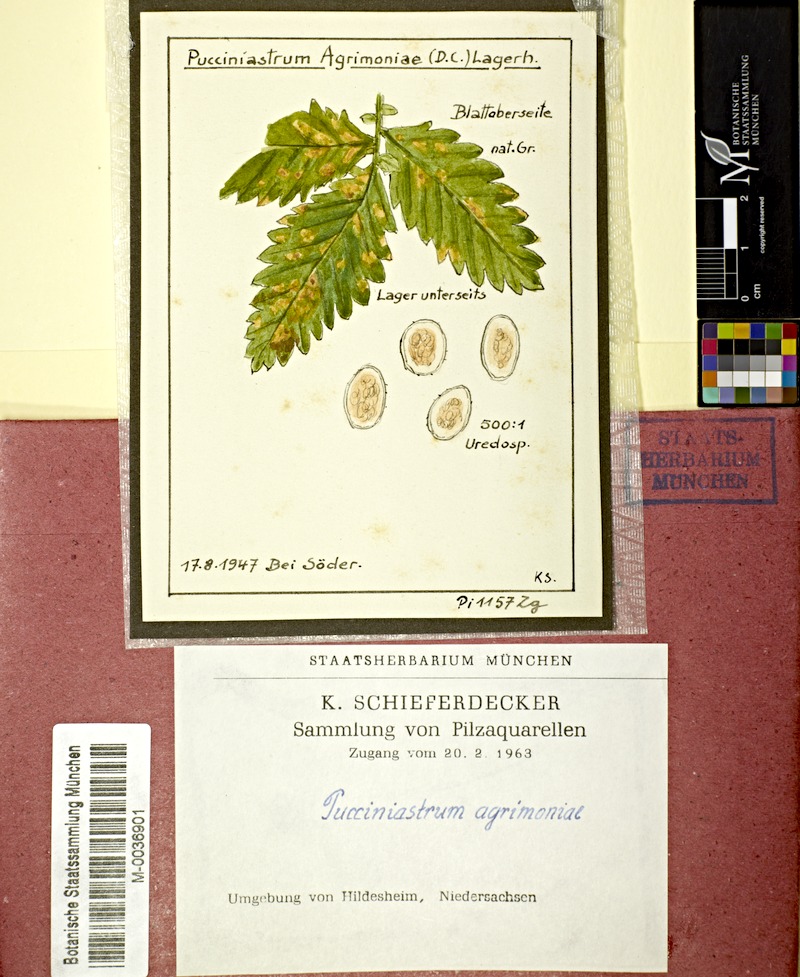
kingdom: Fungi
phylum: Basidiomycota
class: Pucciniomycetes
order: Pucciniales
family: Pucciniastraceae
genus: Pucciniastrum
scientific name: Pucciniastrum agrimoniae
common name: Agrimony rust
